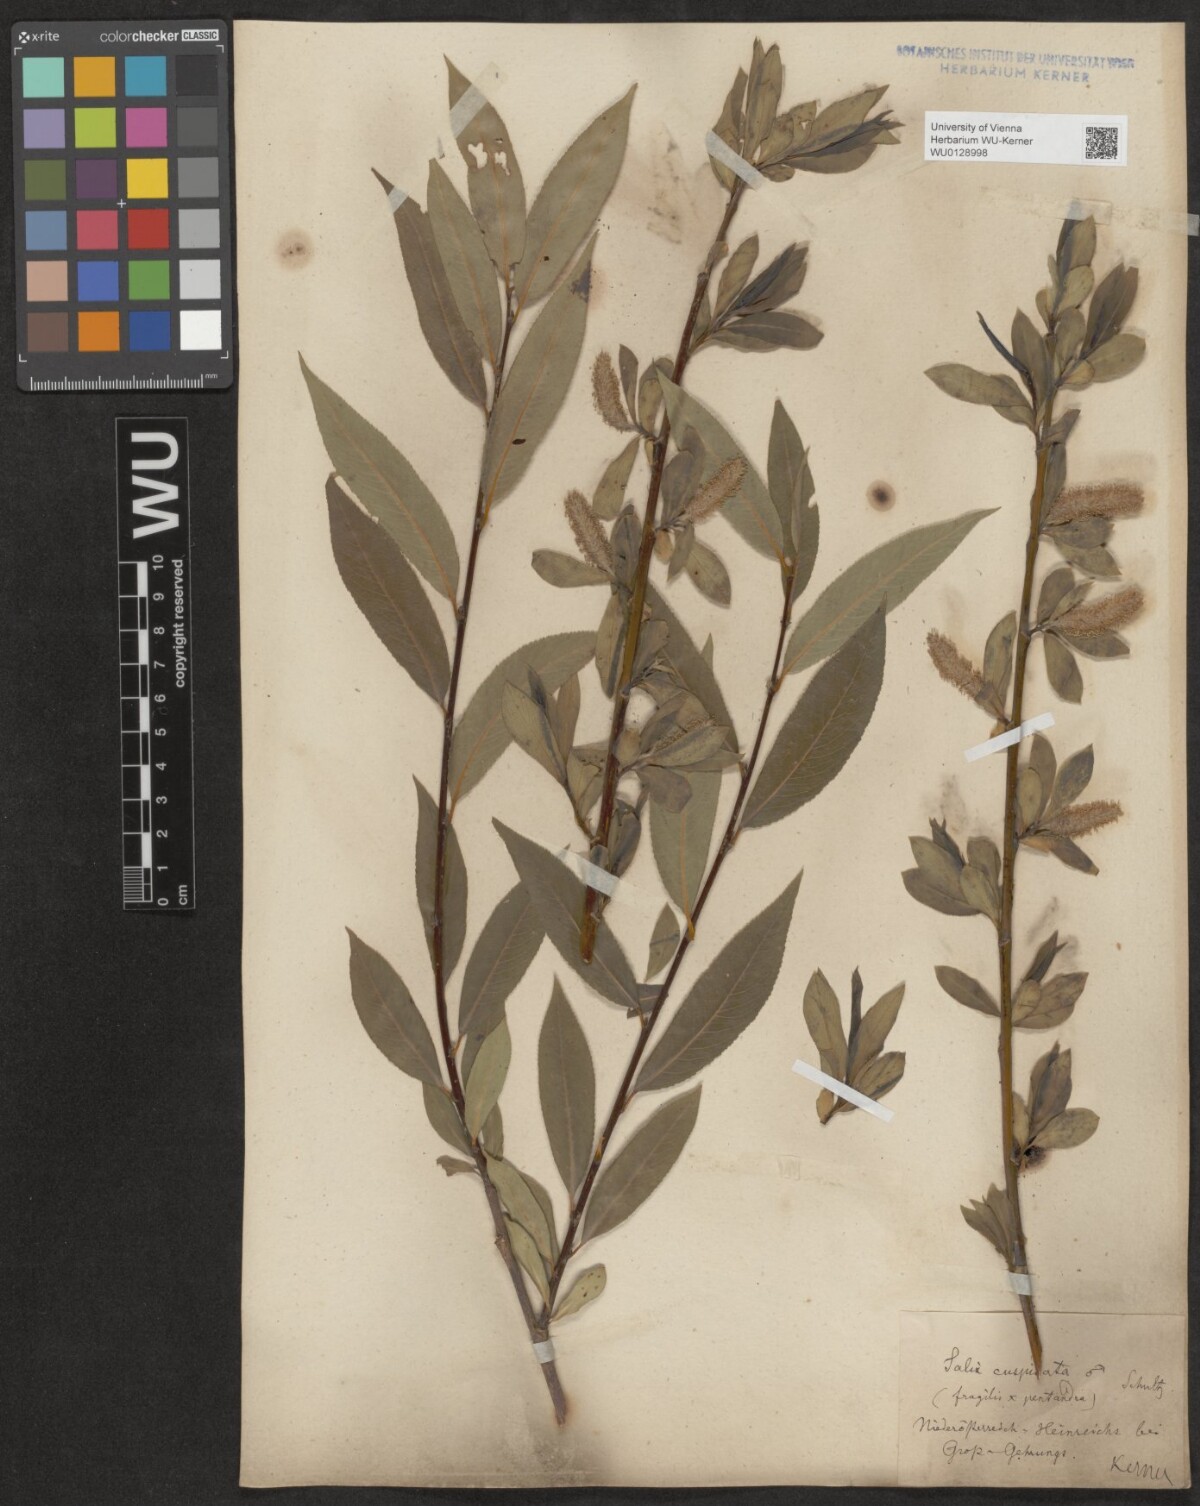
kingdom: Plantae
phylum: Tracheophyta
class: Magnoliopsida
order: Malpighiales
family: Salicaceae
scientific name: Salicaceae
